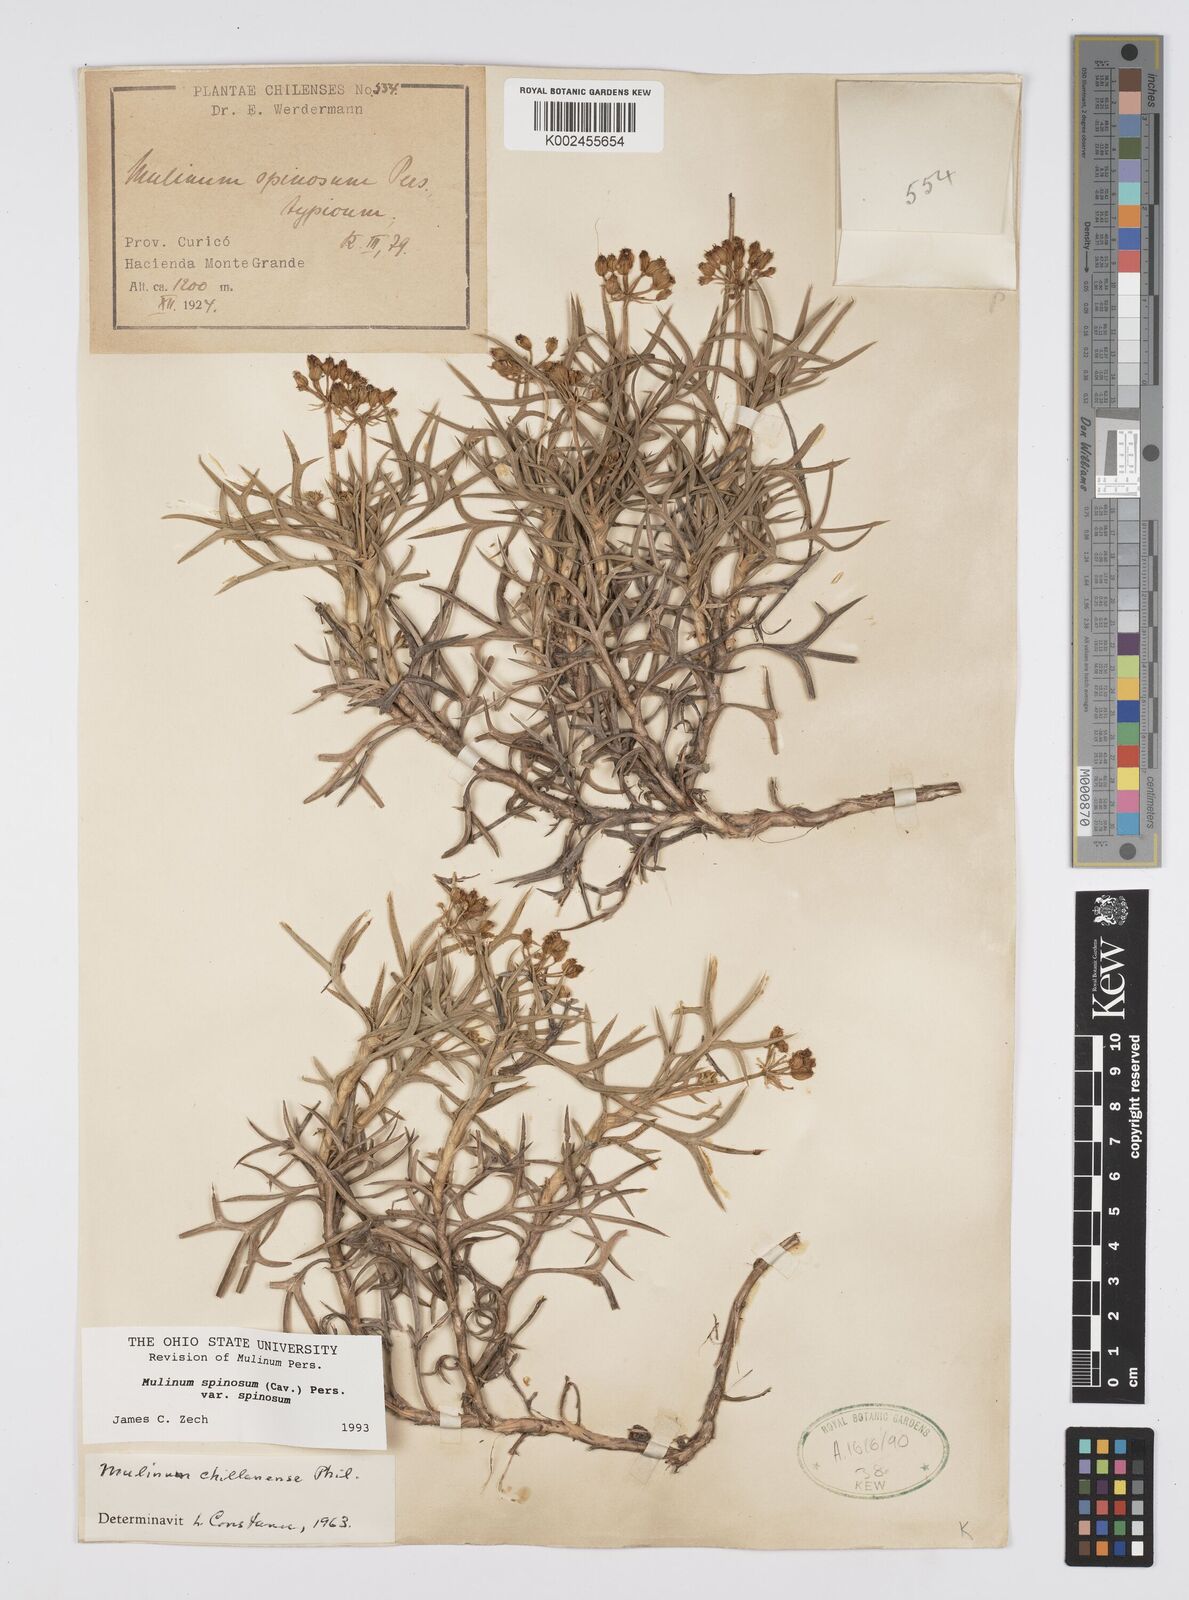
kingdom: Plantae
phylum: Tracheophyta
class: Magnoliopsida
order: Apiales
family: Apiaceae
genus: Azorella
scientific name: Azorella prolifera
